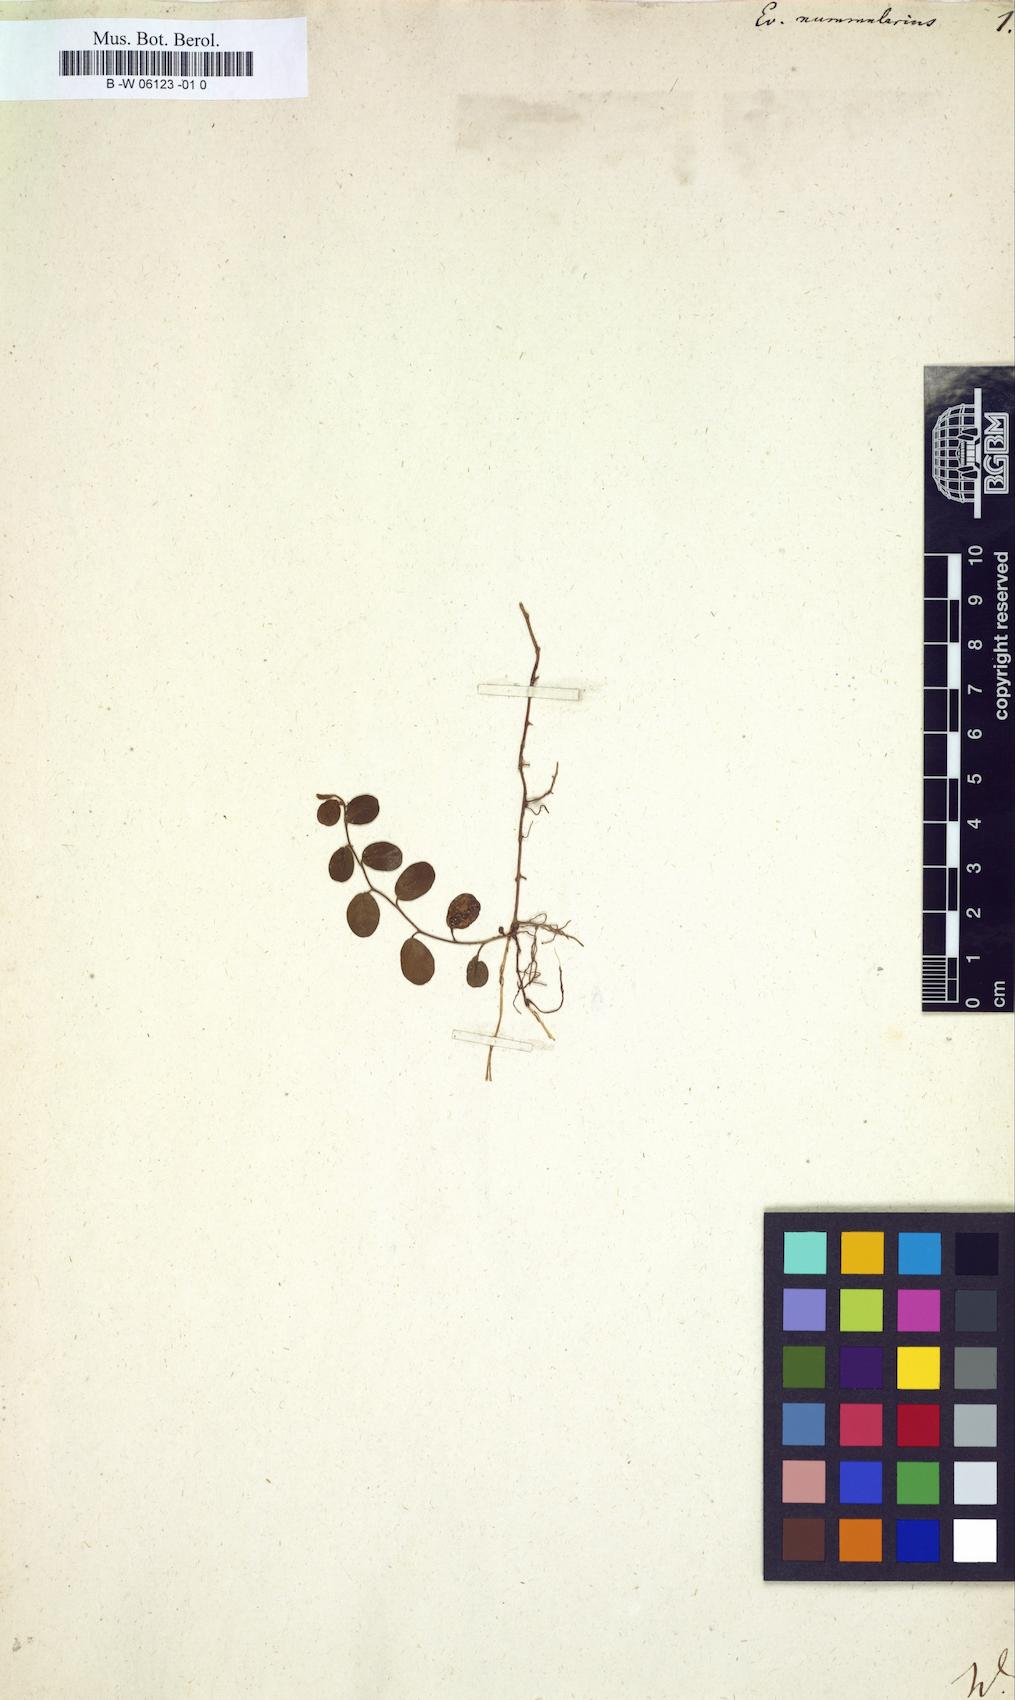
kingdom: Plantae
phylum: Tracheophyta
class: Magnoliopsida
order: Solanales
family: Convolvulaceae
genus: Evolvulus
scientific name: Evolvulus nummularius
